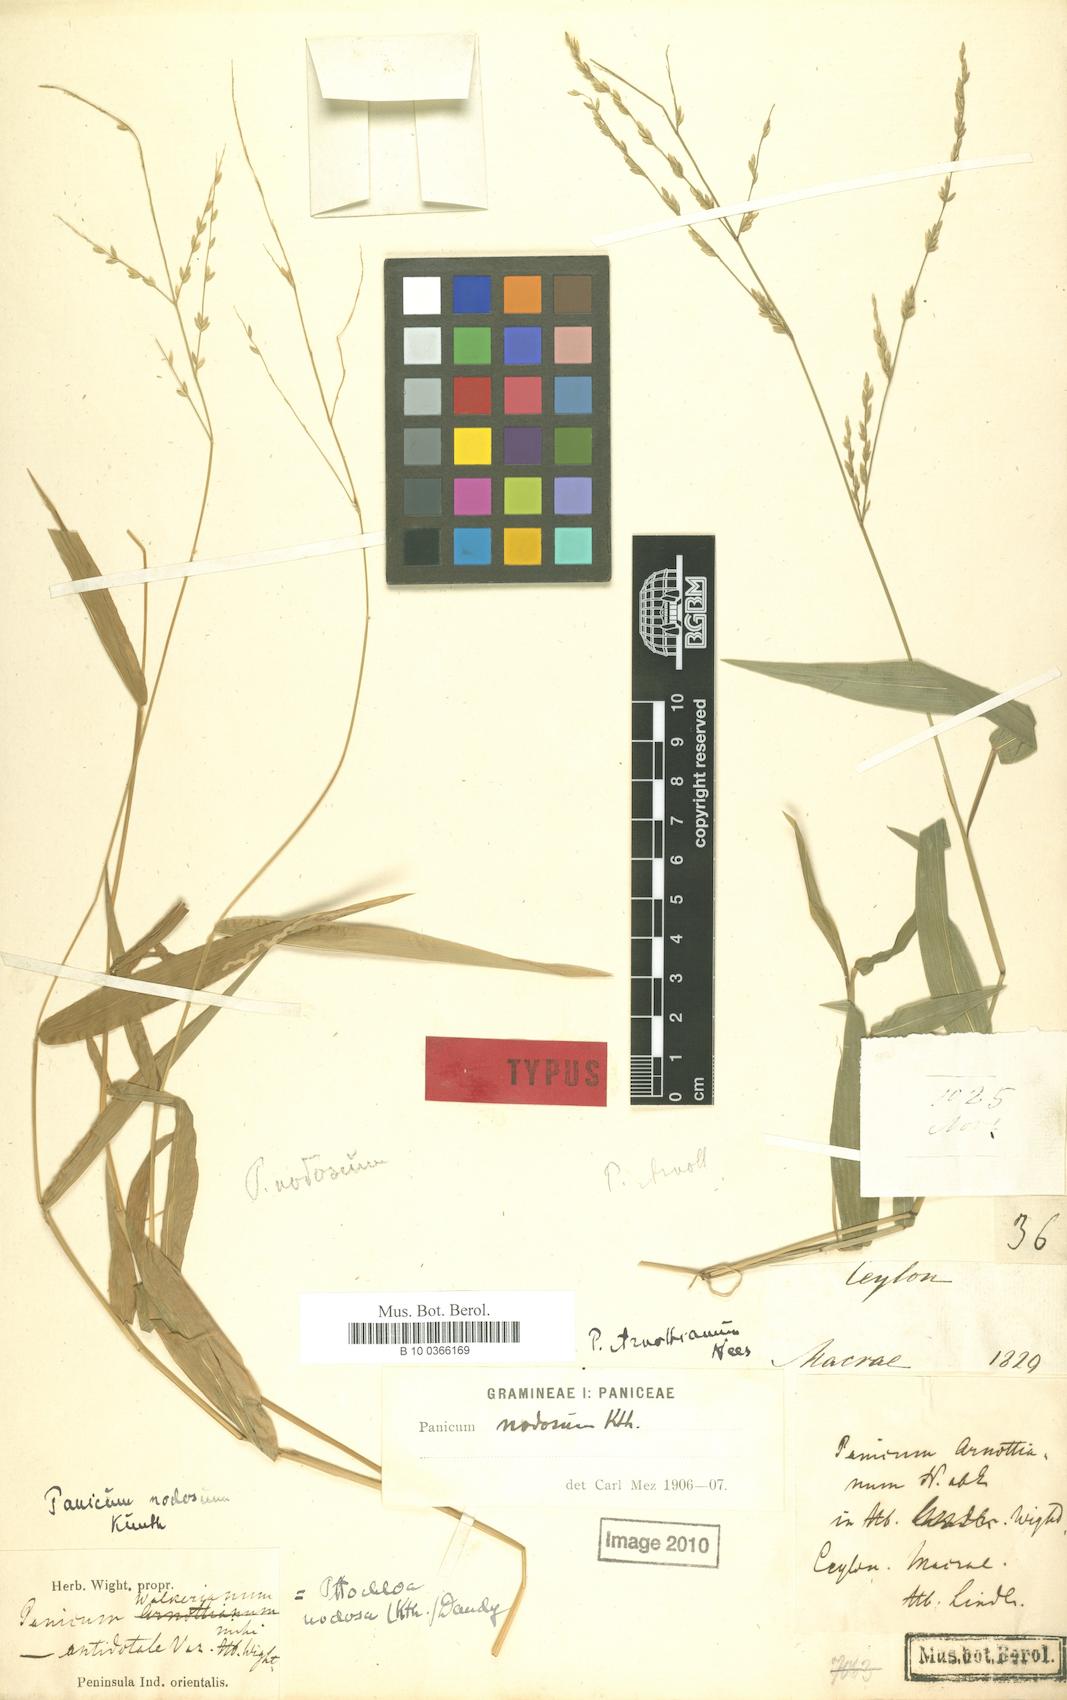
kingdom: Plantae
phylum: Tracheophyta
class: Liliopsida
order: Poales
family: Poaceae
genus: Ottochloa
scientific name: Ottochloa nodosa
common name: Slender-panic grass
